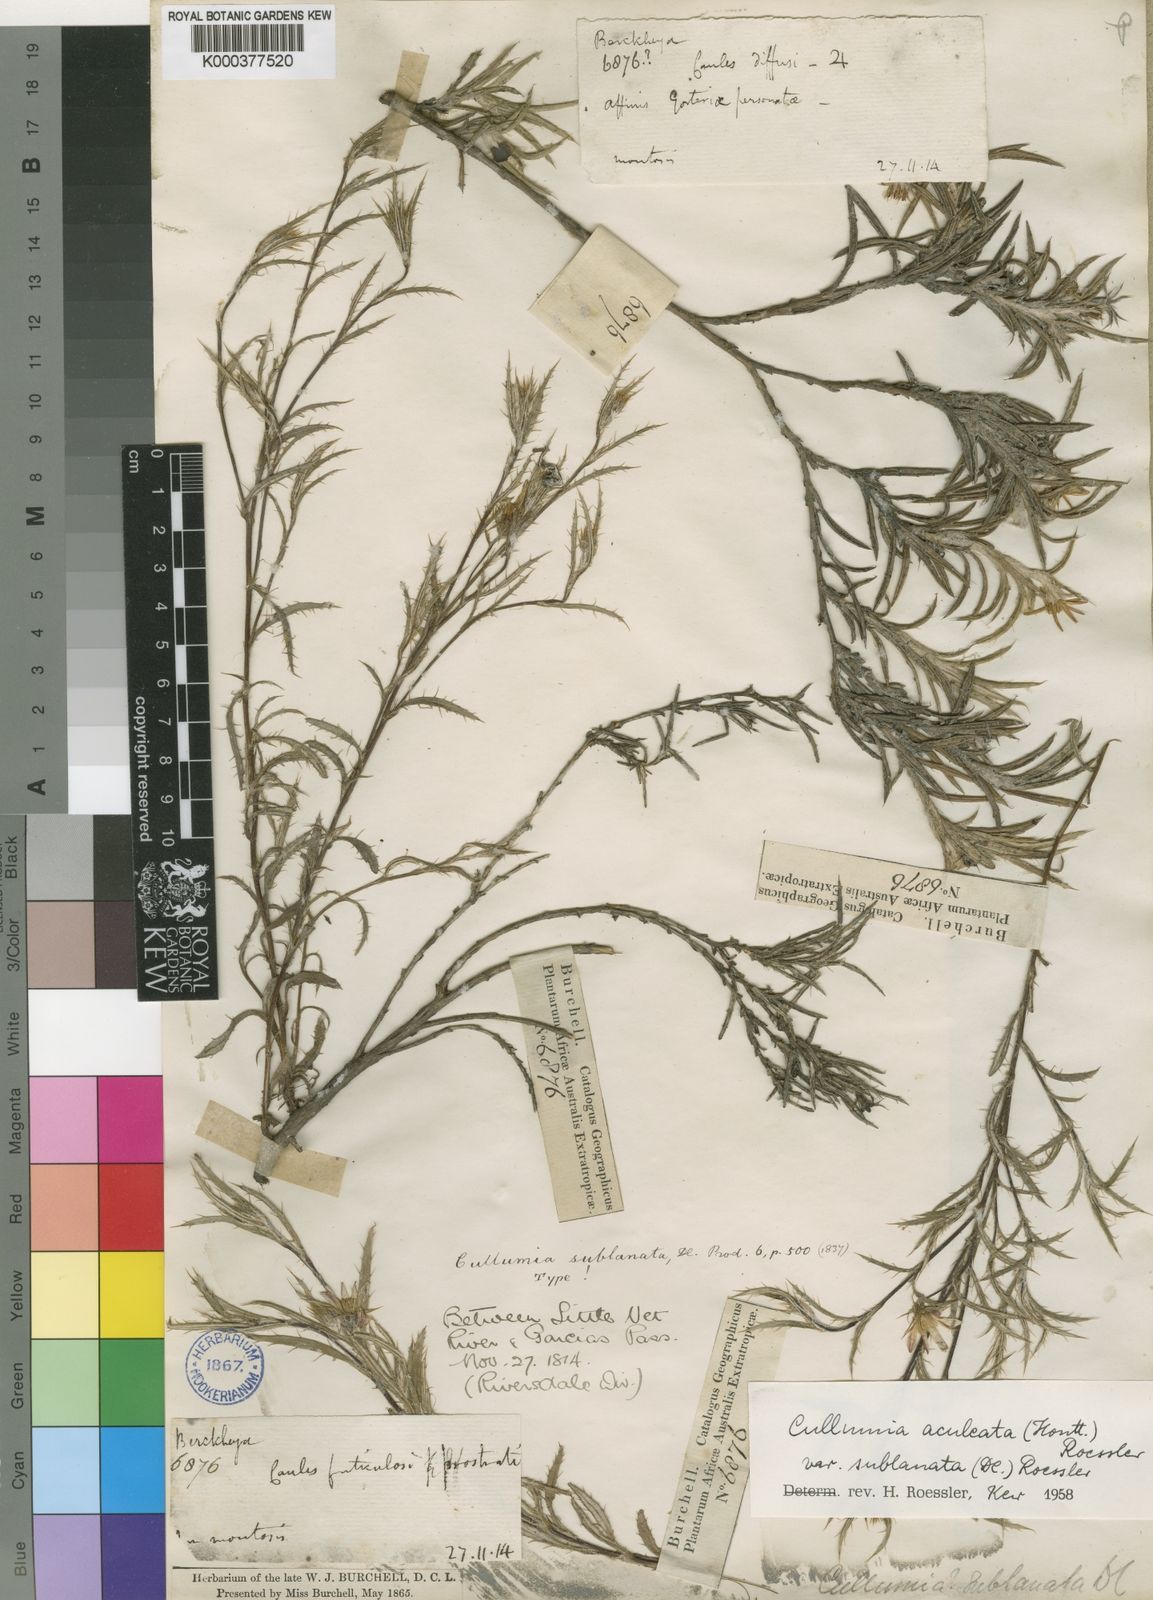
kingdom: Plantae
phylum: Tracheophyta
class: Magnoliopsida
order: Asterales
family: Asteraceae
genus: Cullumia
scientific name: Cullumia aculeata
